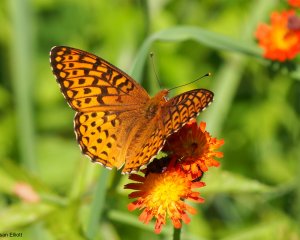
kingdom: Animalia
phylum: Arthropoda
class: Insecta
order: Lepidoptera
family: Nymphalidae
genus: Speyeria
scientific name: Speyeria atlantis
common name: Atlantis Fritillary
